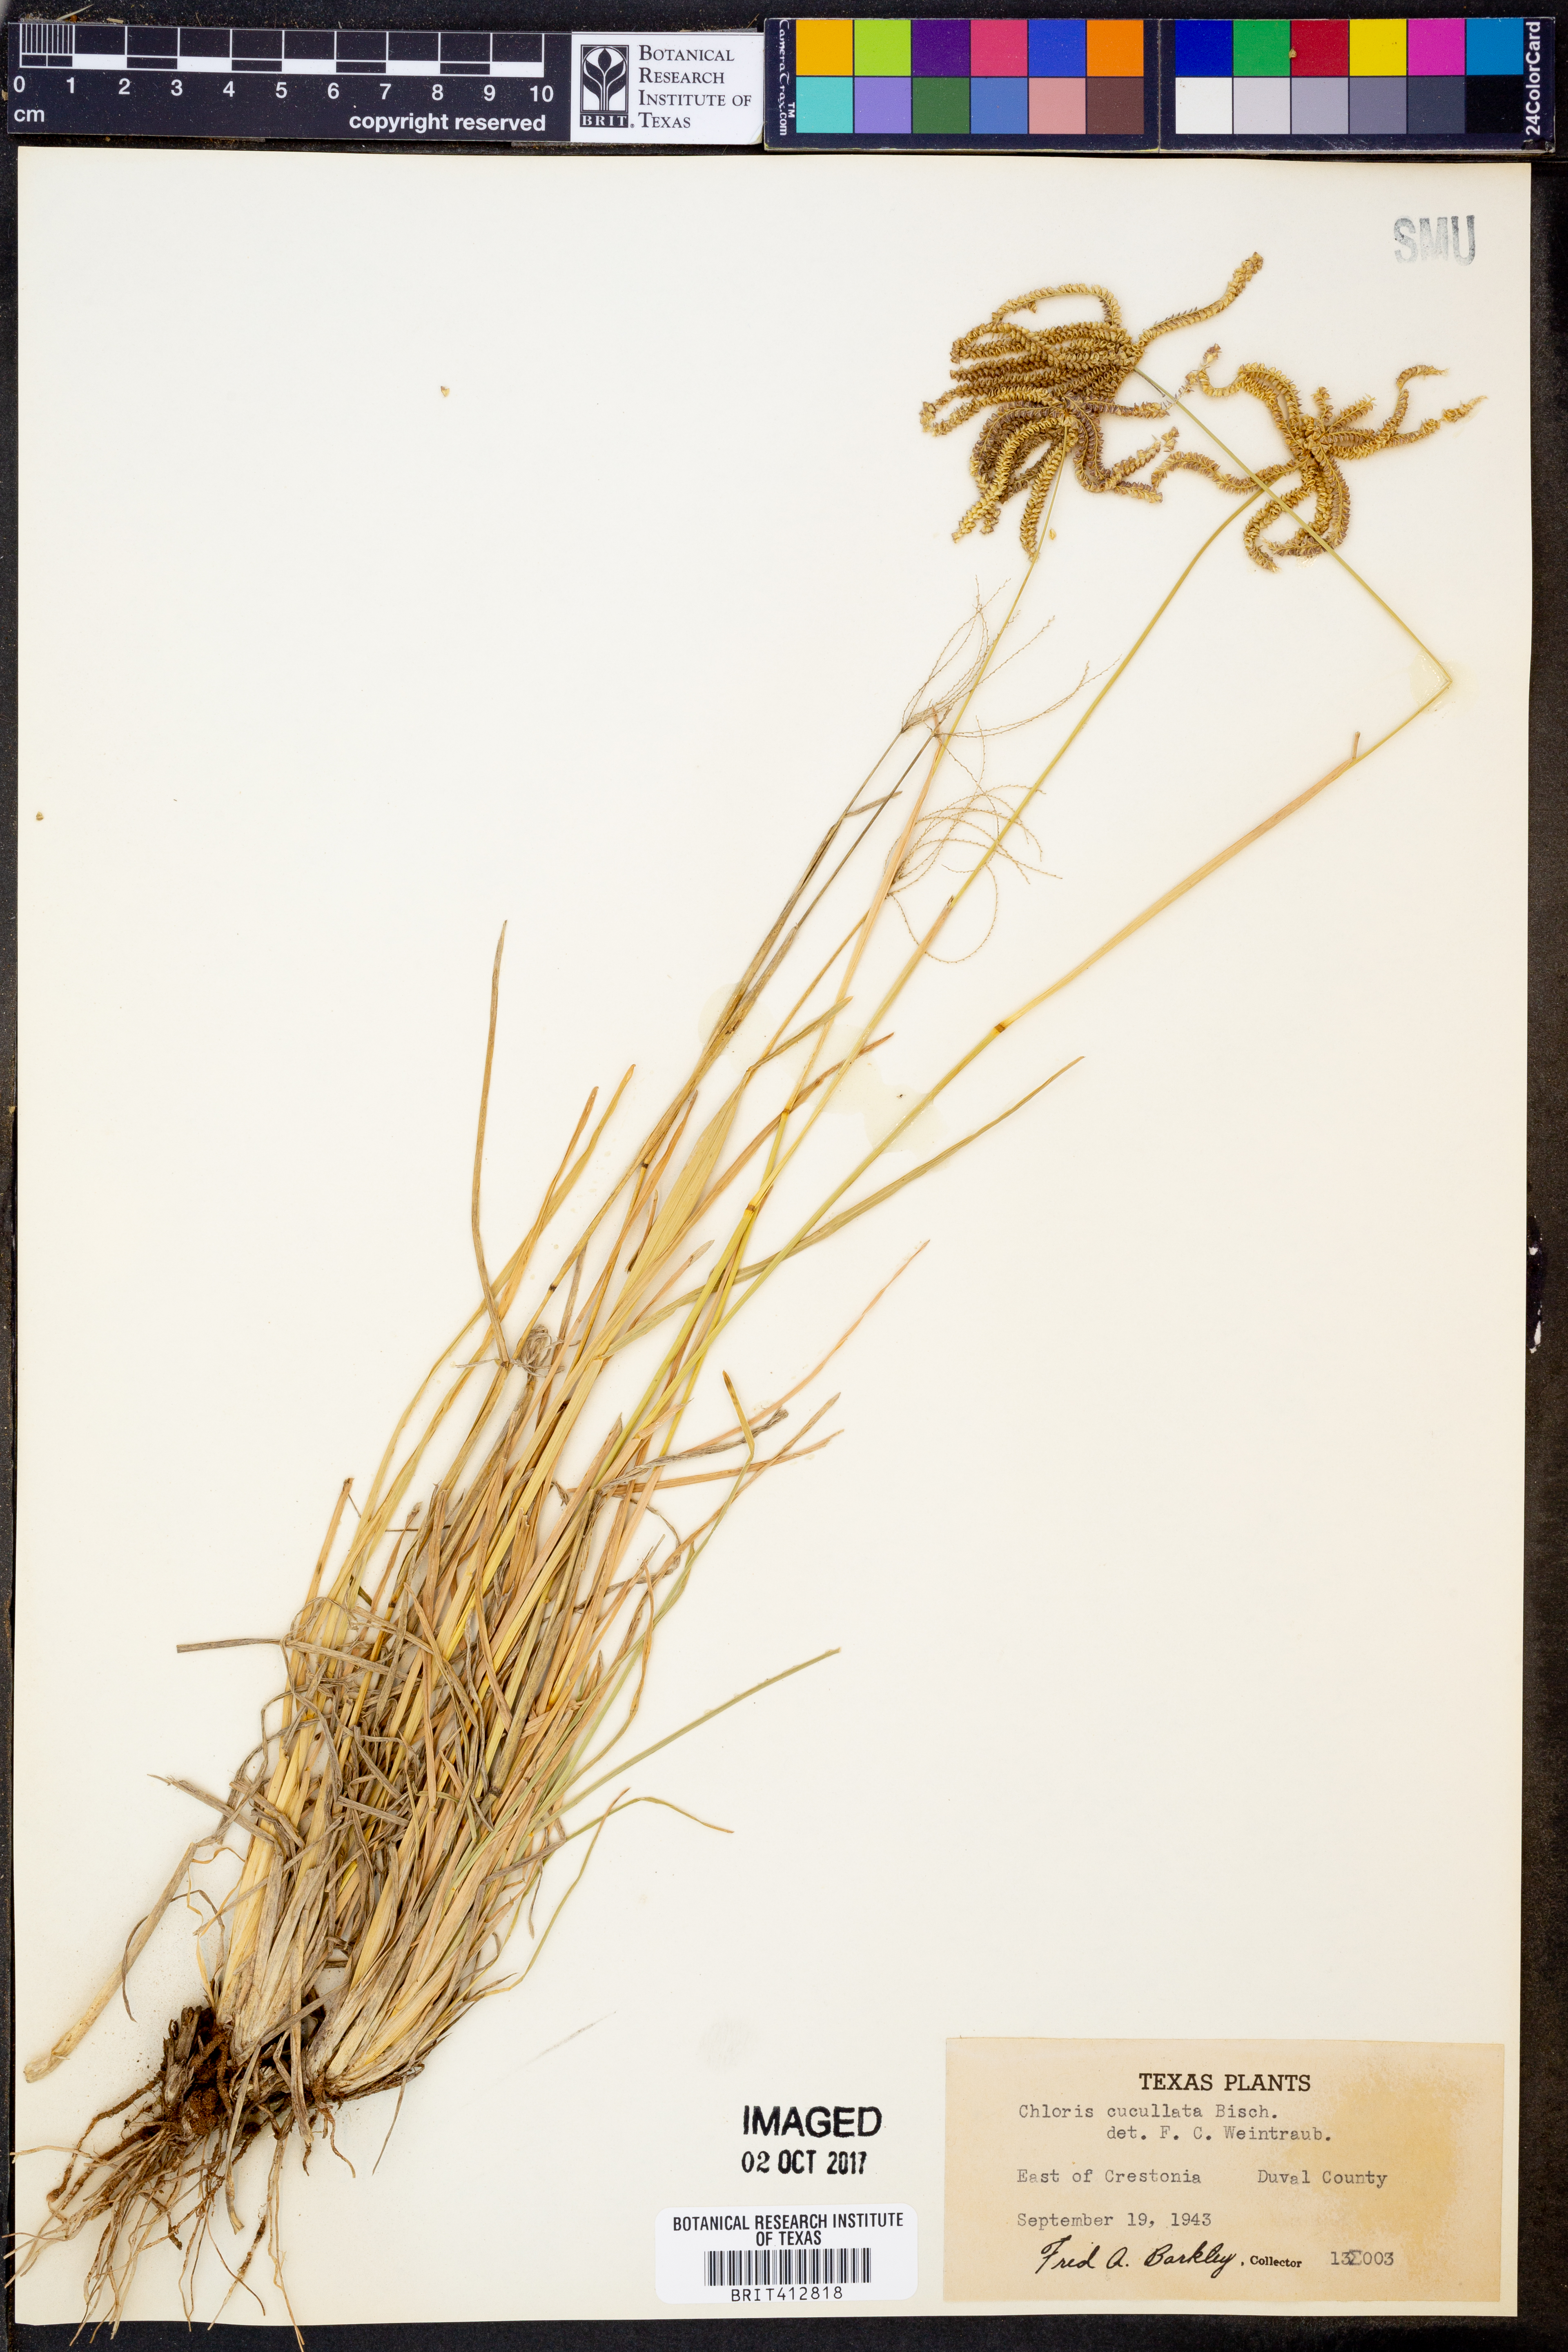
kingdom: Plantae
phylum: Tracheophyta
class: Liliopsida
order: Poales
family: Poaceae
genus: Chloris
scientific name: Chloris cucullata
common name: Hooded windmill grass
